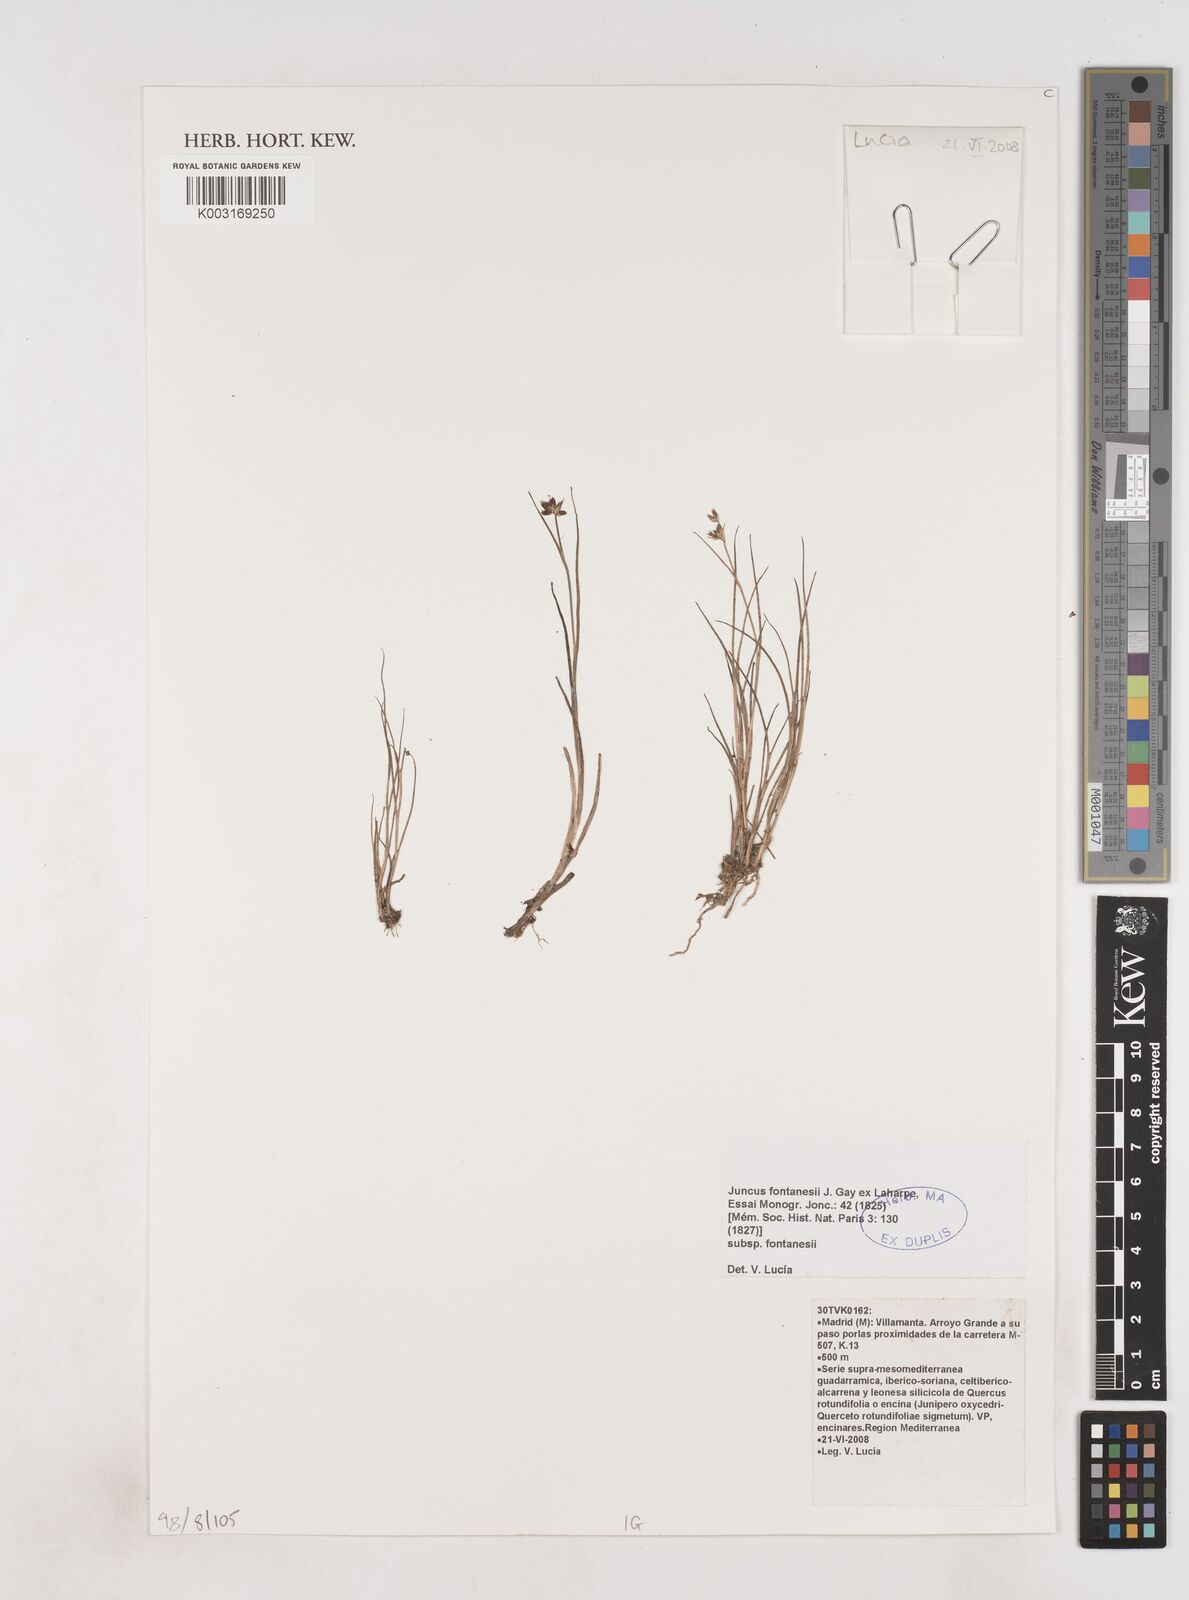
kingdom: Plantae
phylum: Tracheophyta
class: Liliopsida
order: Poales
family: Juncaceae
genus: Juncus
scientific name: Juncus fontanesii
